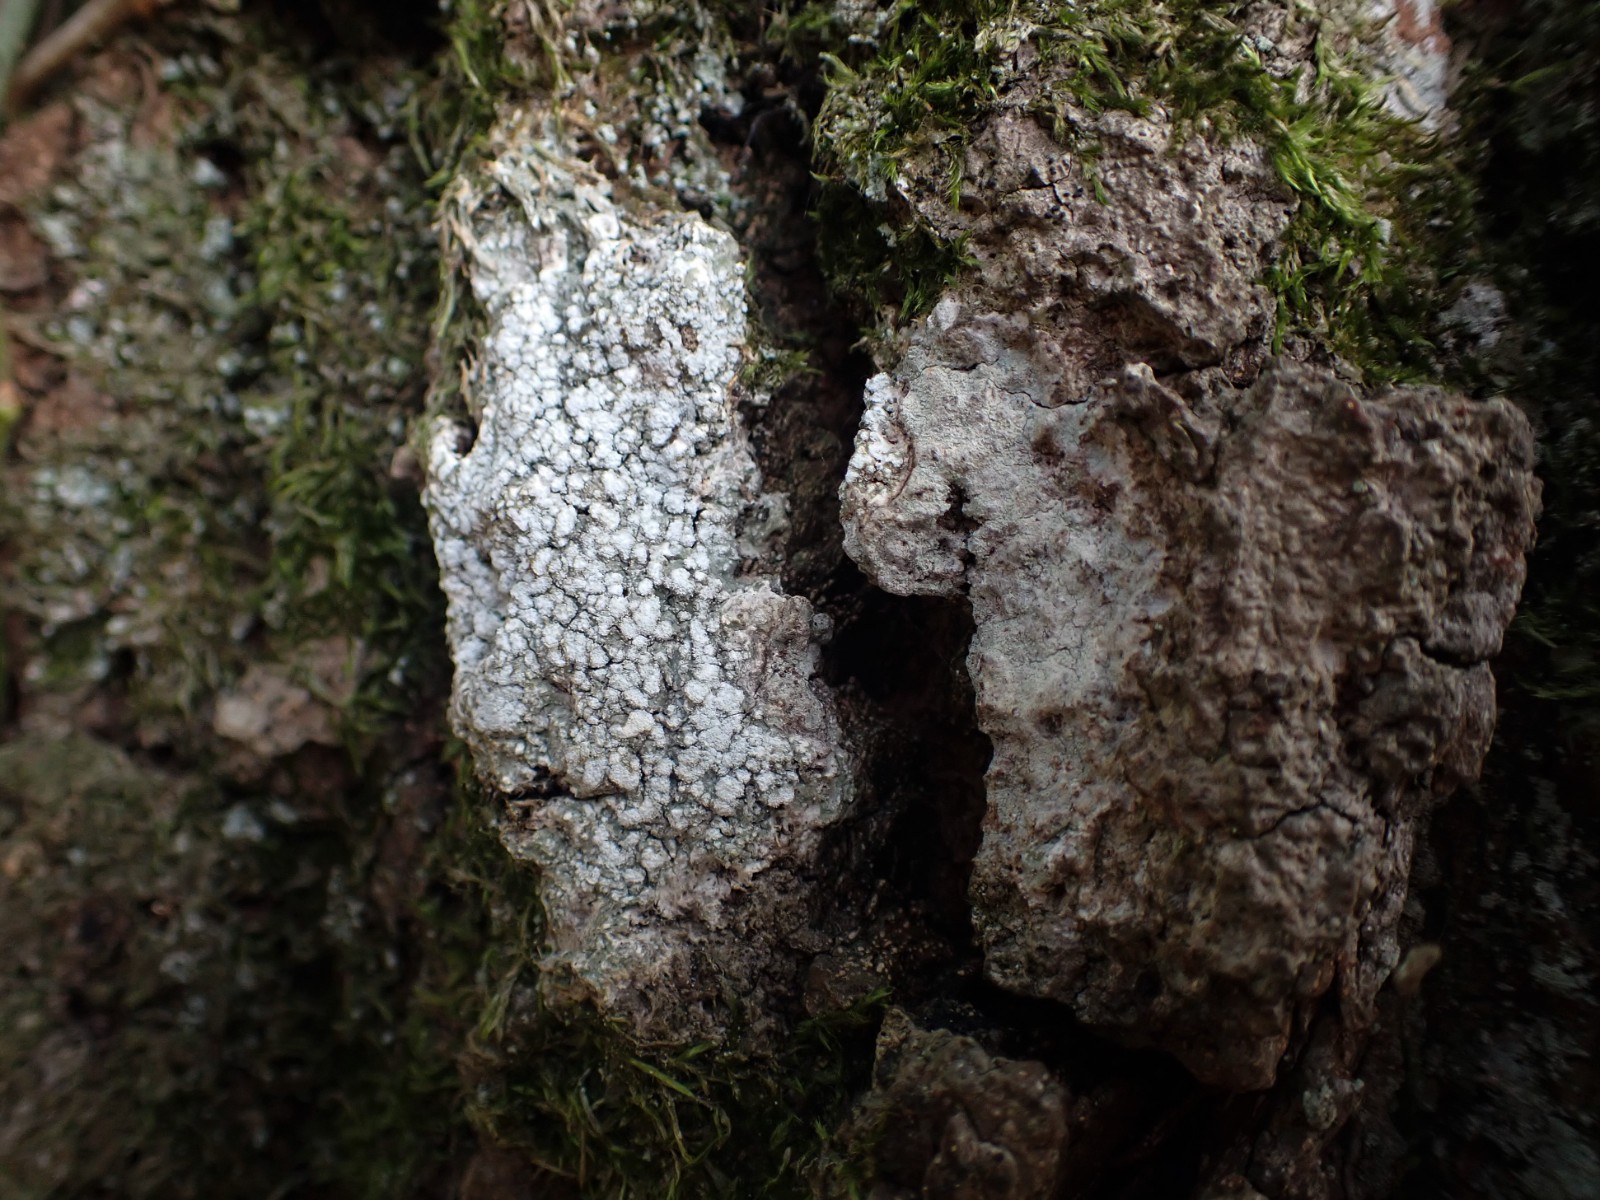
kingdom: Fungi
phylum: Ascomycota
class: Lecanoromycetes
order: Pertusariales
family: Pertusariaceae
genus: Lepra
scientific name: Lepra amara
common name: bitter prikvortelav
